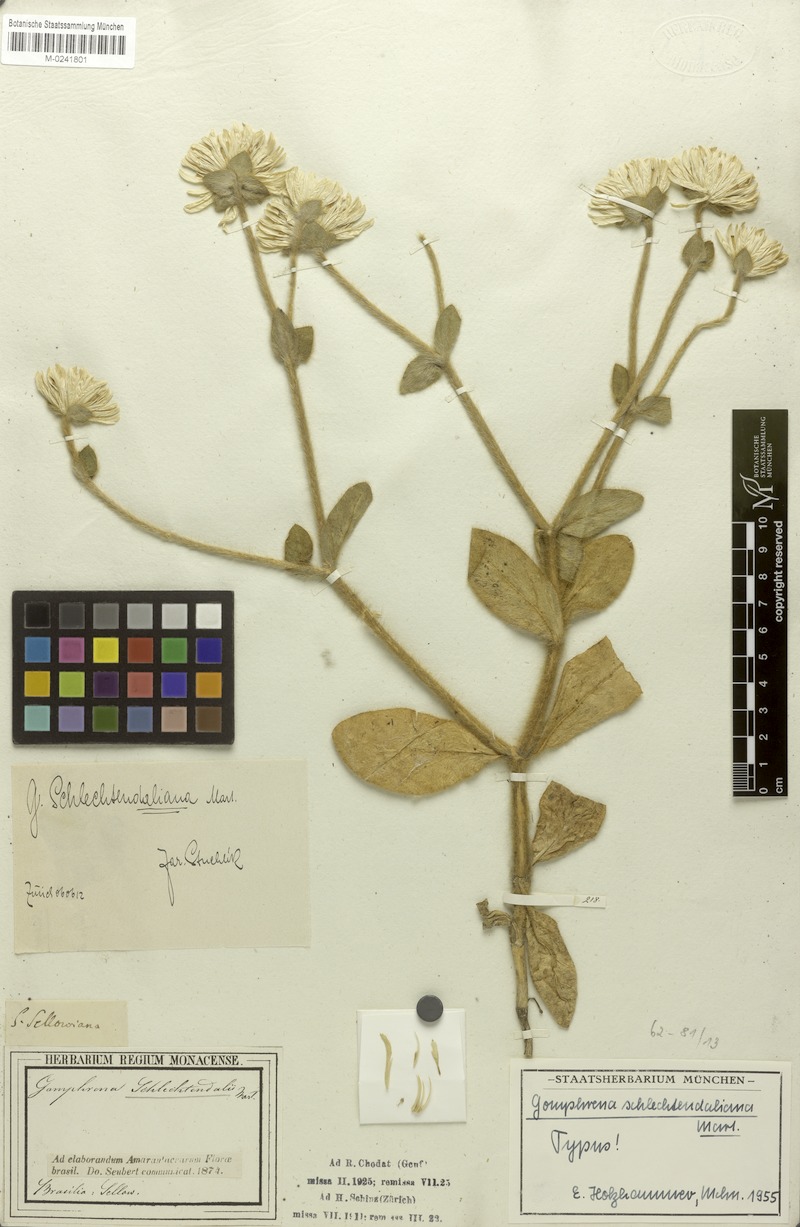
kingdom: Plantae
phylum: Tracheophyta
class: Magnoliopsida
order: Caryophyllales
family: Amaranthaceae
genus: Gomphrena
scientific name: Gomphrena schlechtendaliana
